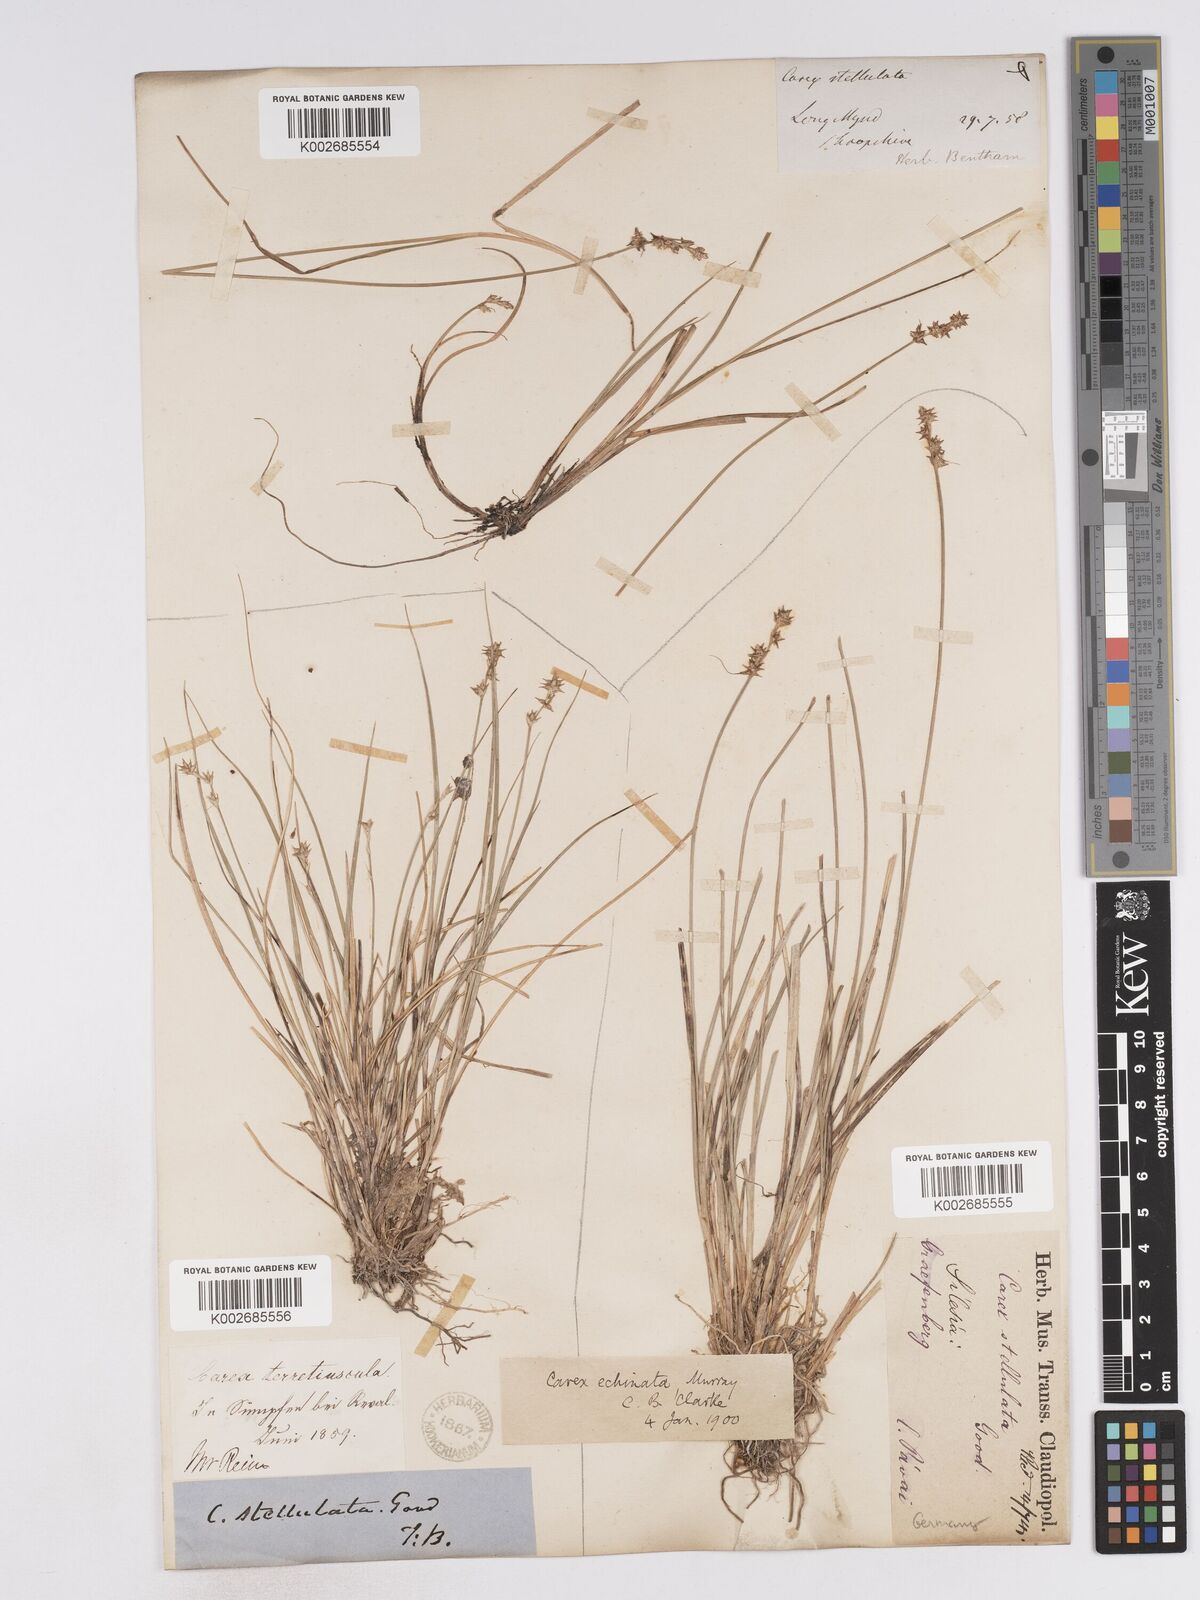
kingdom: Plantae
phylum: Tracheophyta
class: Liliopsida
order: Poales
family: Cyperaceae
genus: Carex
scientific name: Carex echinata
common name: Star sedge
